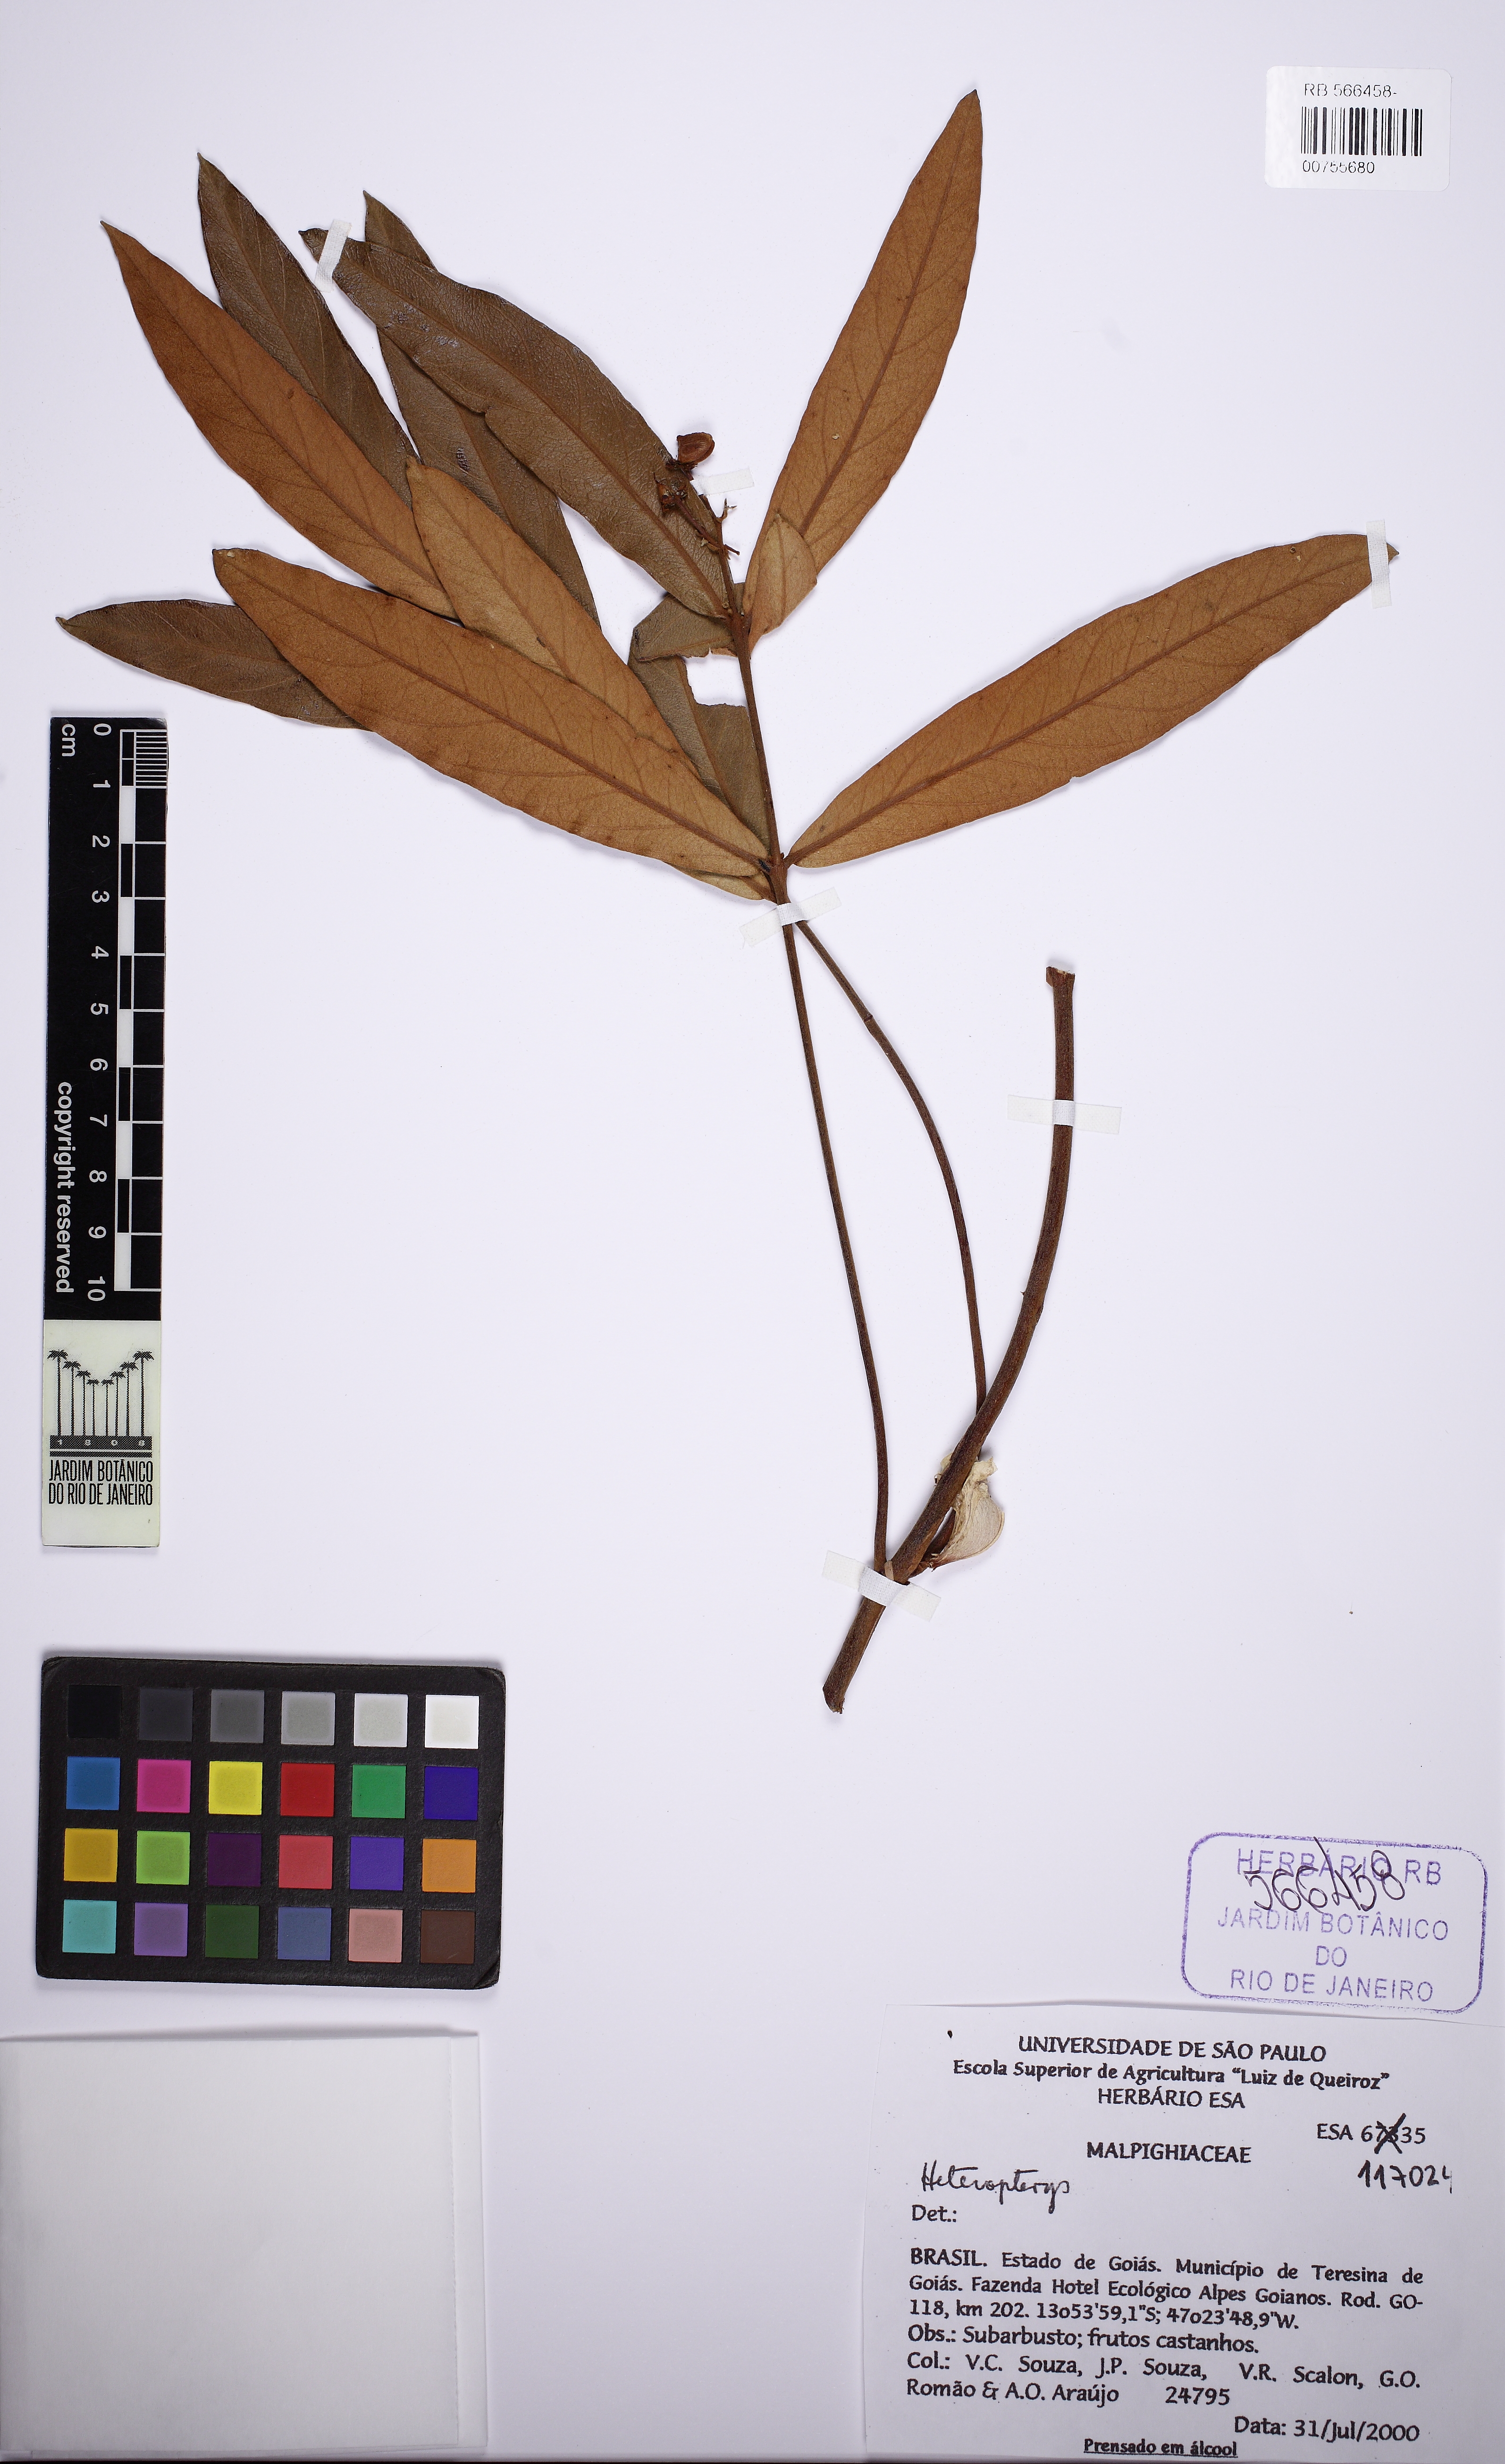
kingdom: Plantae
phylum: Tracheophyta
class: Magnoliopsida
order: Malpighiales
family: Malpighiaceae
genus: Heteropterys
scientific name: Heteropterys pannosa
